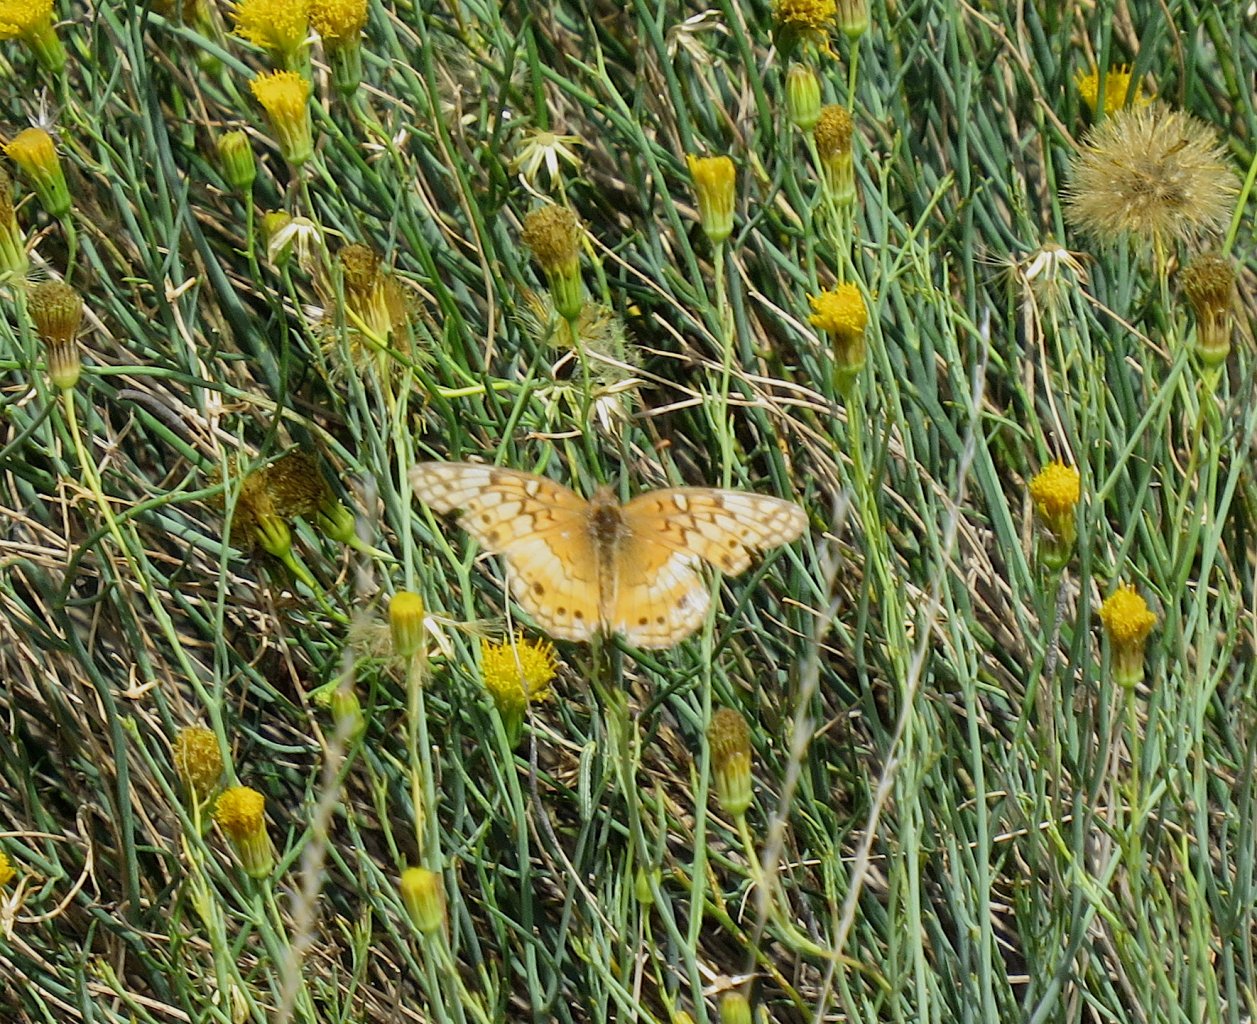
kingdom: Animalia
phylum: Arthropoda
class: Insecta
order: Lepidoptera
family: Nymphalidae
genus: Euptoieta
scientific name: Euptoieta claudia
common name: Variegated Fritillary
